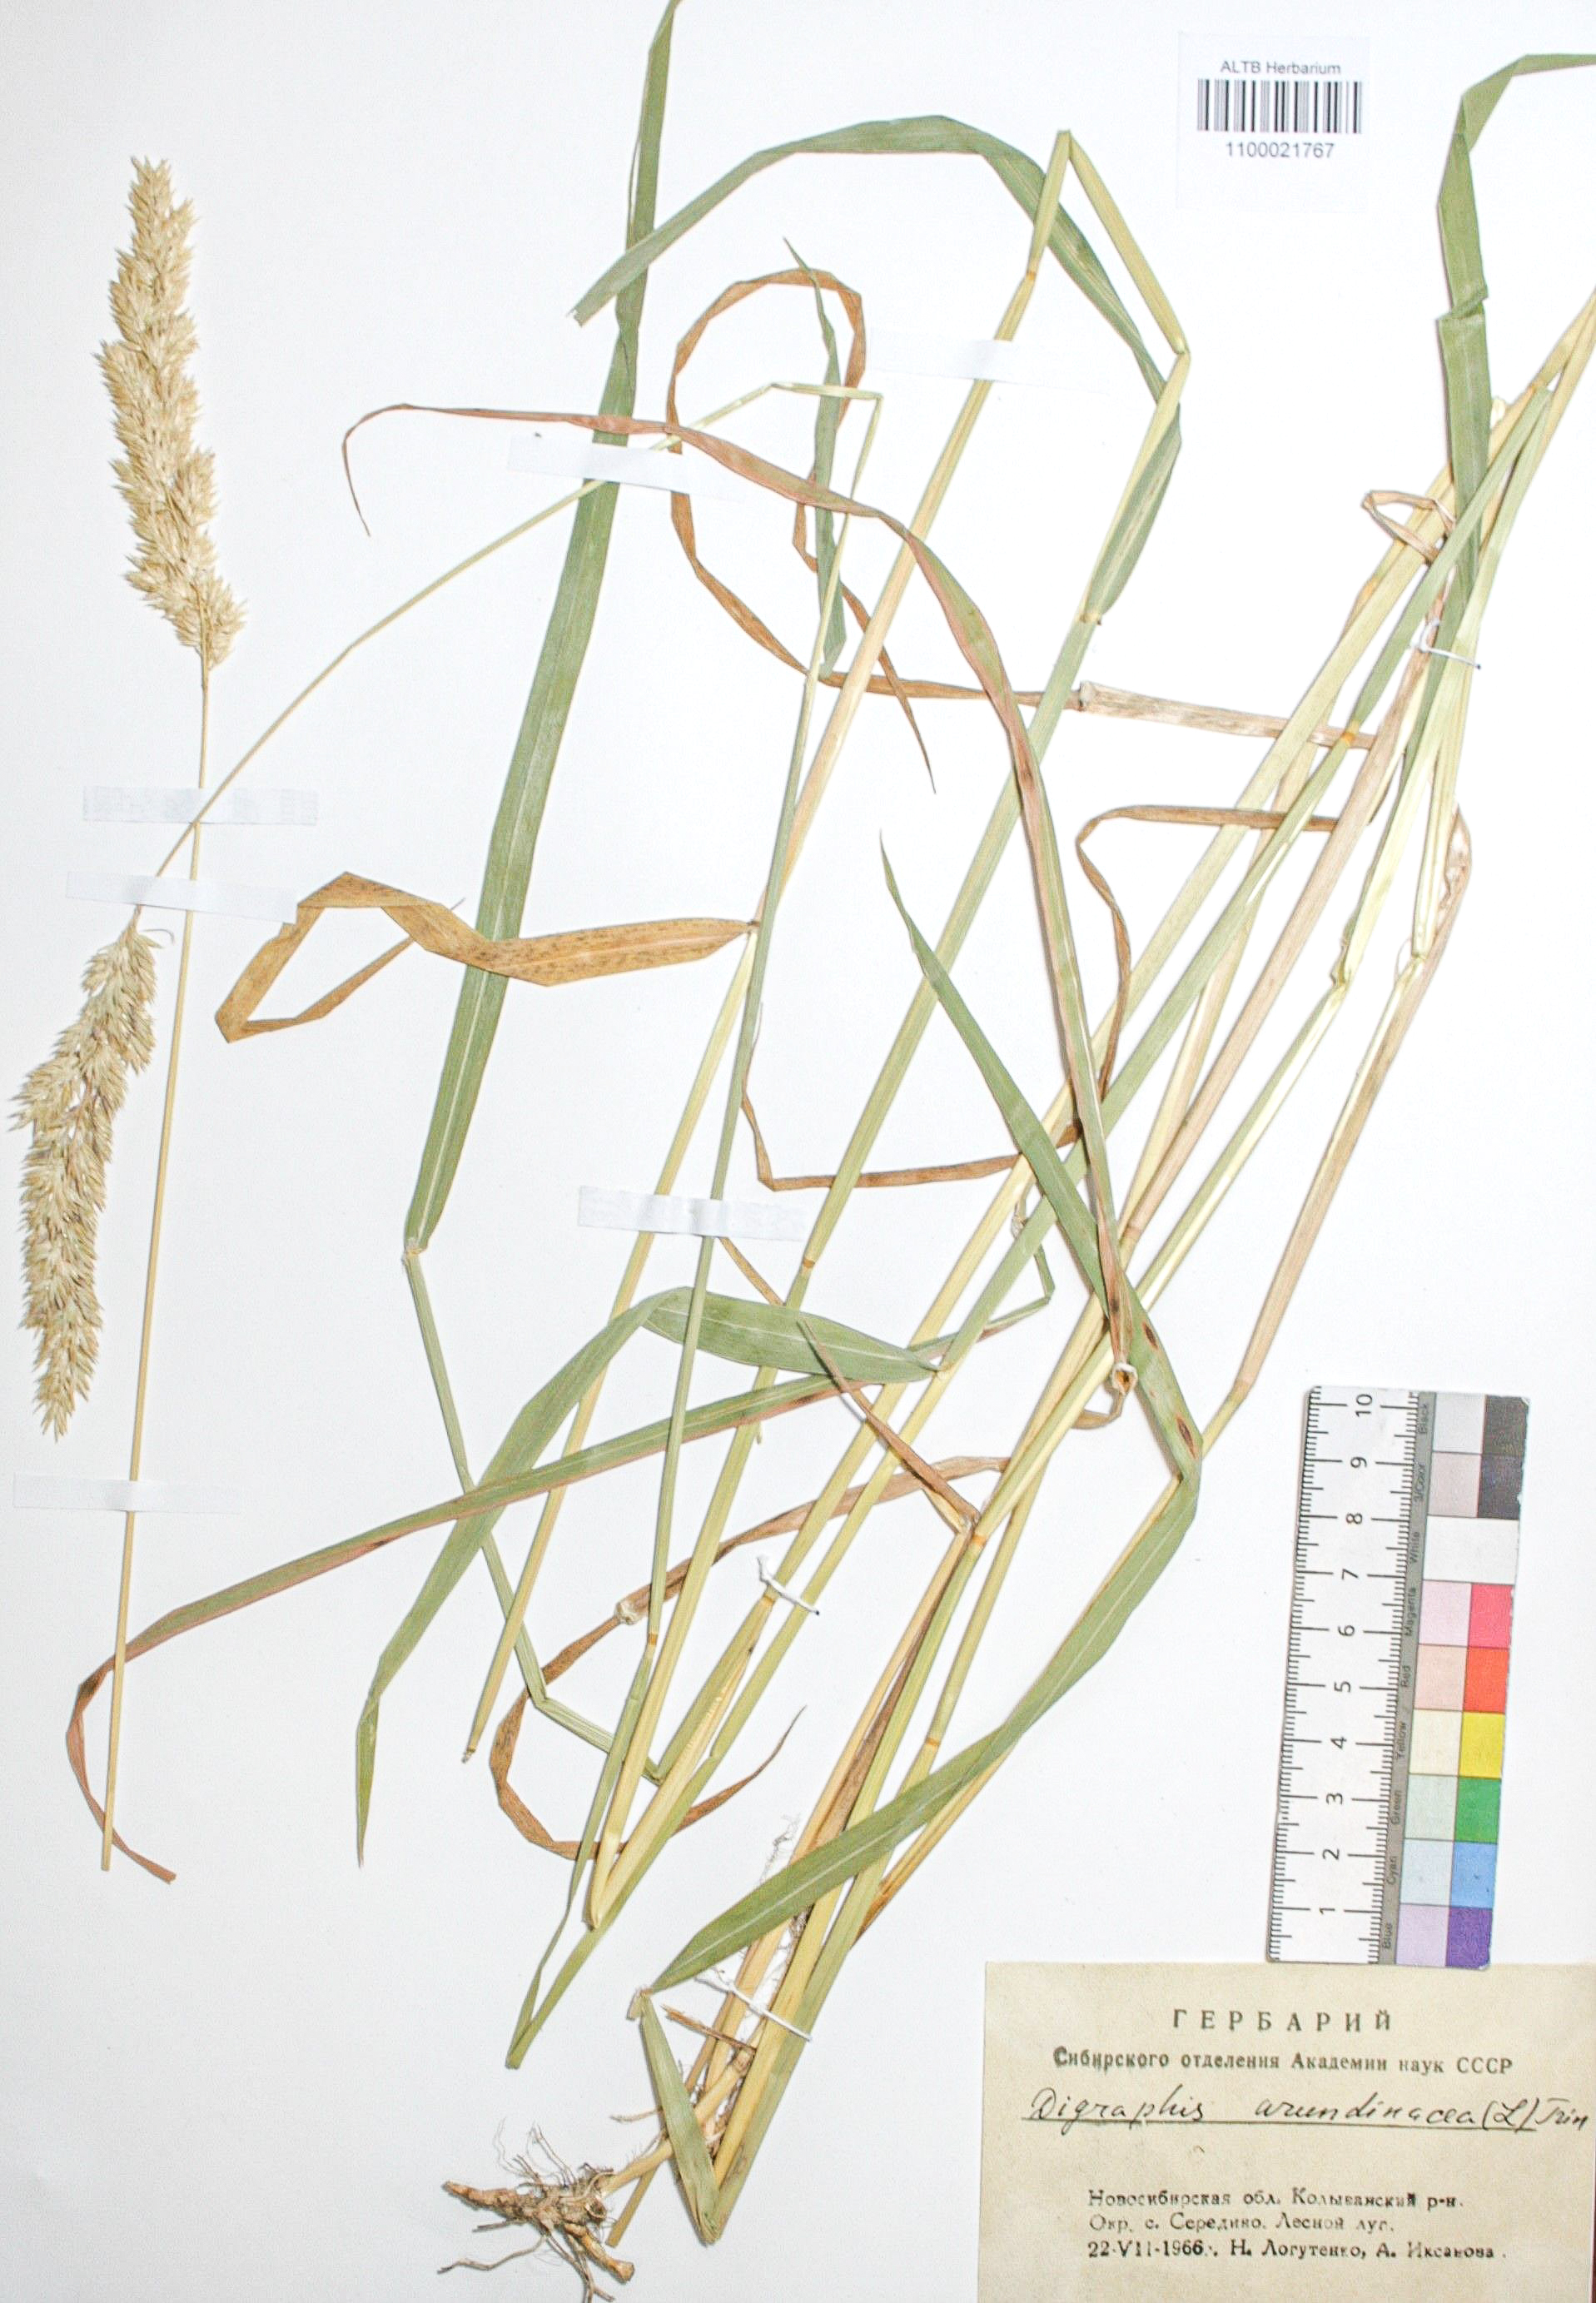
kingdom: Plantae
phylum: Tracheophyta
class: Liliopsida
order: Poales
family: Poaceae
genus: Phalaris
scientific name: Phalaris arundinacea
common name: Reed canary-grass
